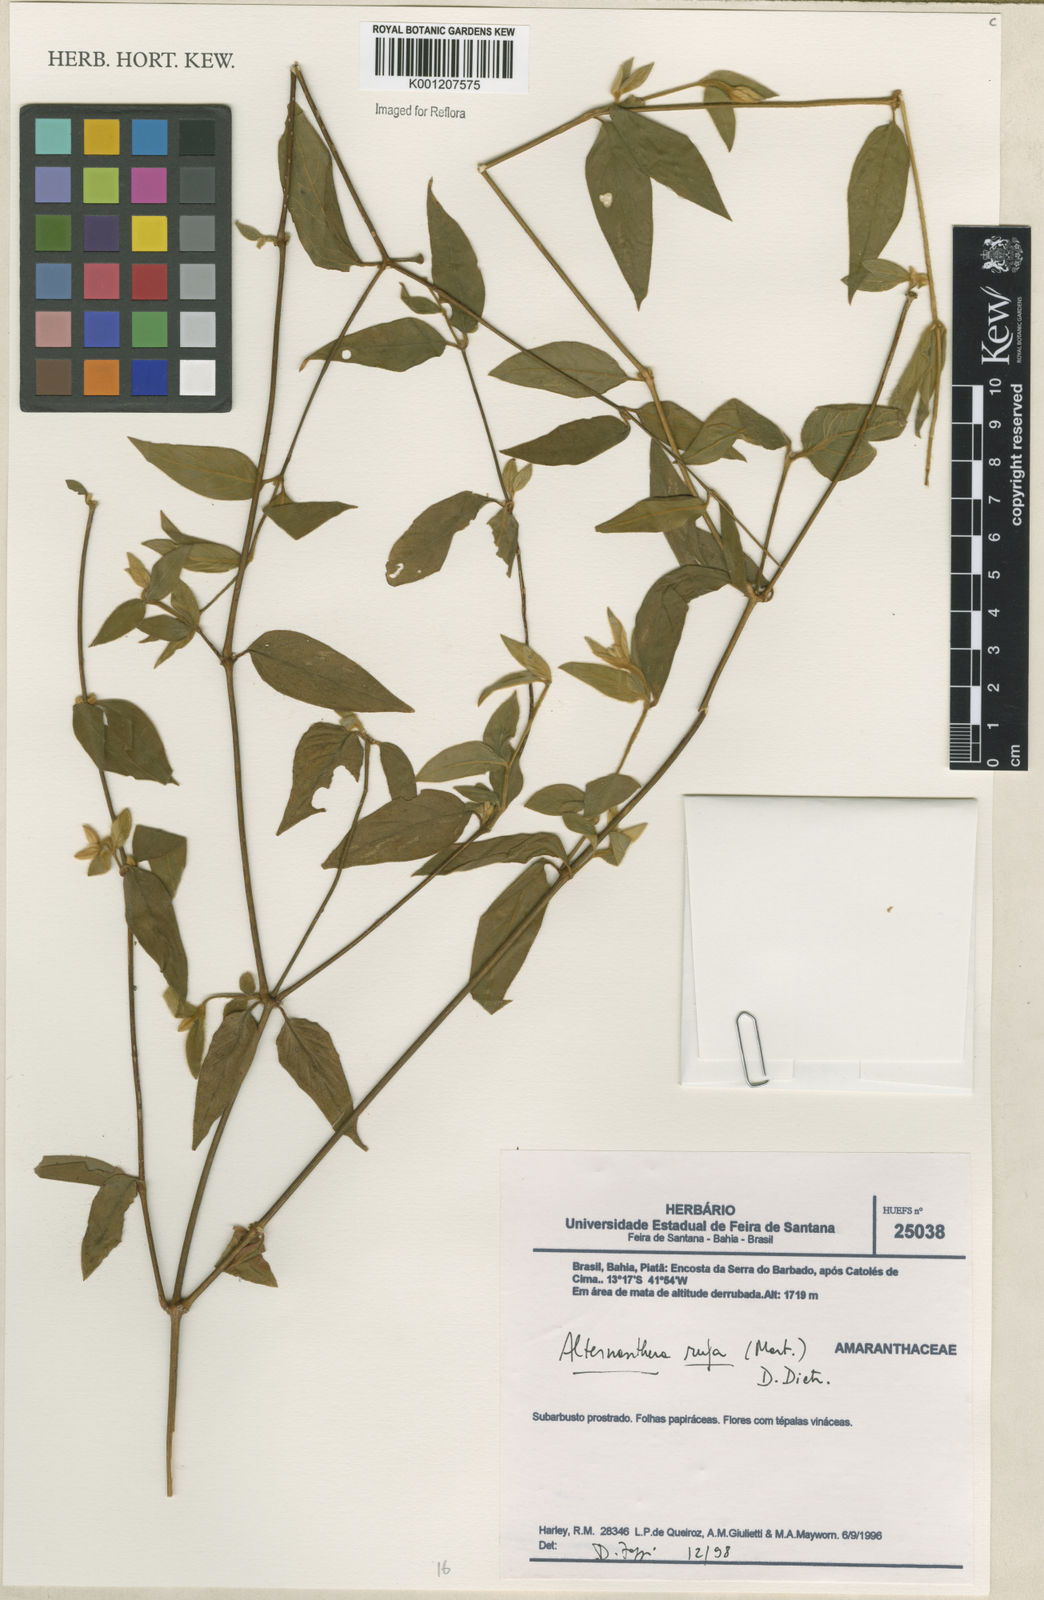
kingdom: Plantae
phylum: Tracheophyta
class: Magnoliopsida
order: Caryophyllales
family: Amaranthaceae
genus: Alternanthera
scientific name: Alternanthera rufa
